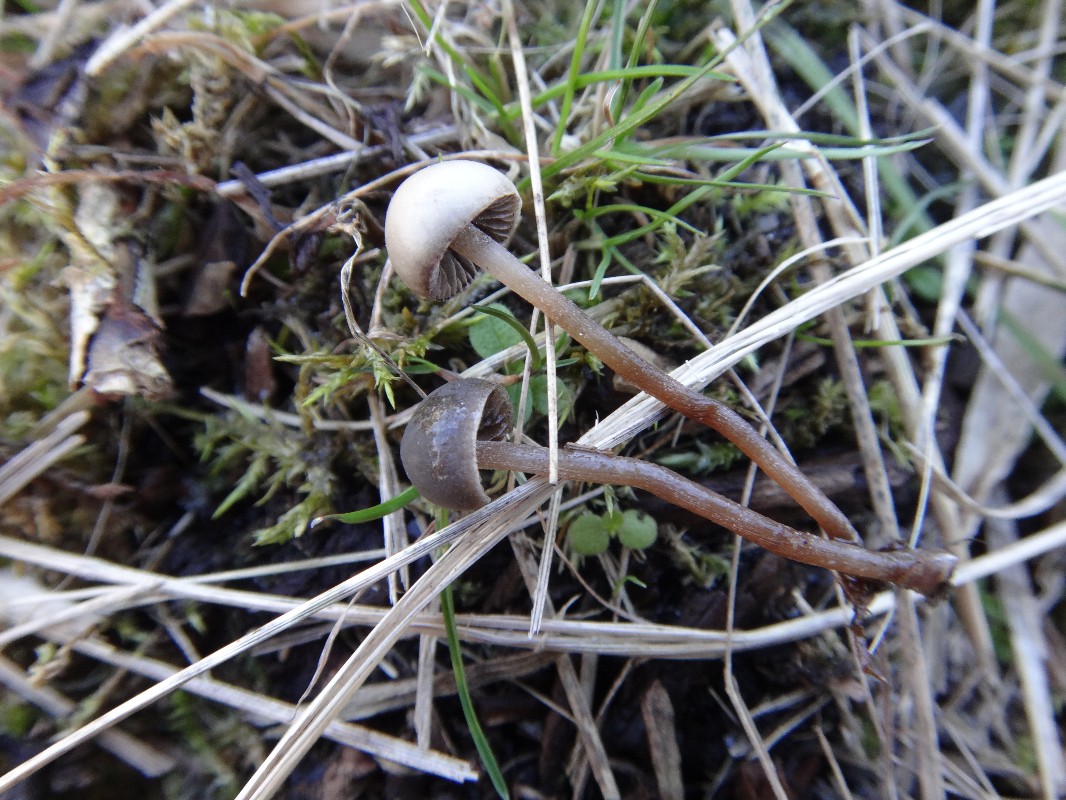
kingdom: Fungi
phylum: Basidiomycota
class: Agaricomycetes
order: Agaricales
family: Bolbitiaceae
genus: Panaeolus
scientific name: Panaeolus olivaceus
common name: lysstokket glanshat
